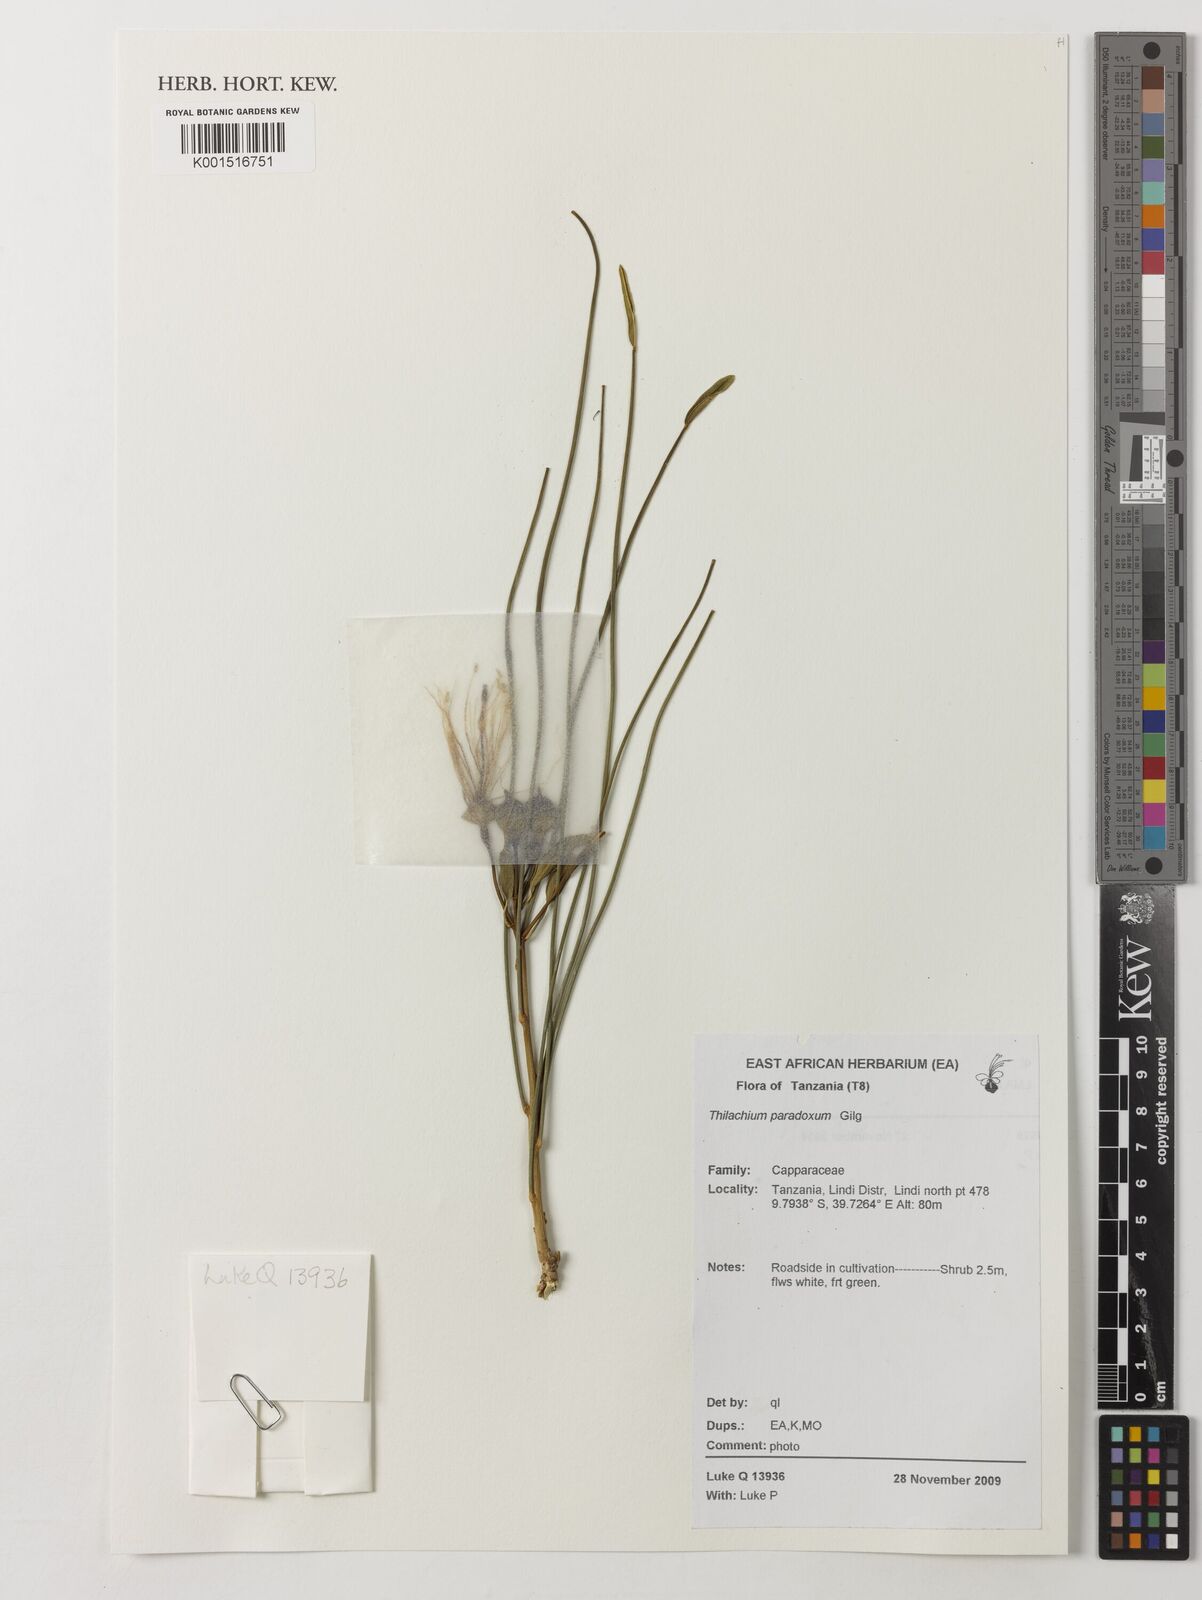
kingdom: Plantae
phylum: Tracheophyta
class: Magnoliopsida
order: Brassicales
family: Capparaceae
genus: Thilachium
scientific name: Thilachium paradoxum
